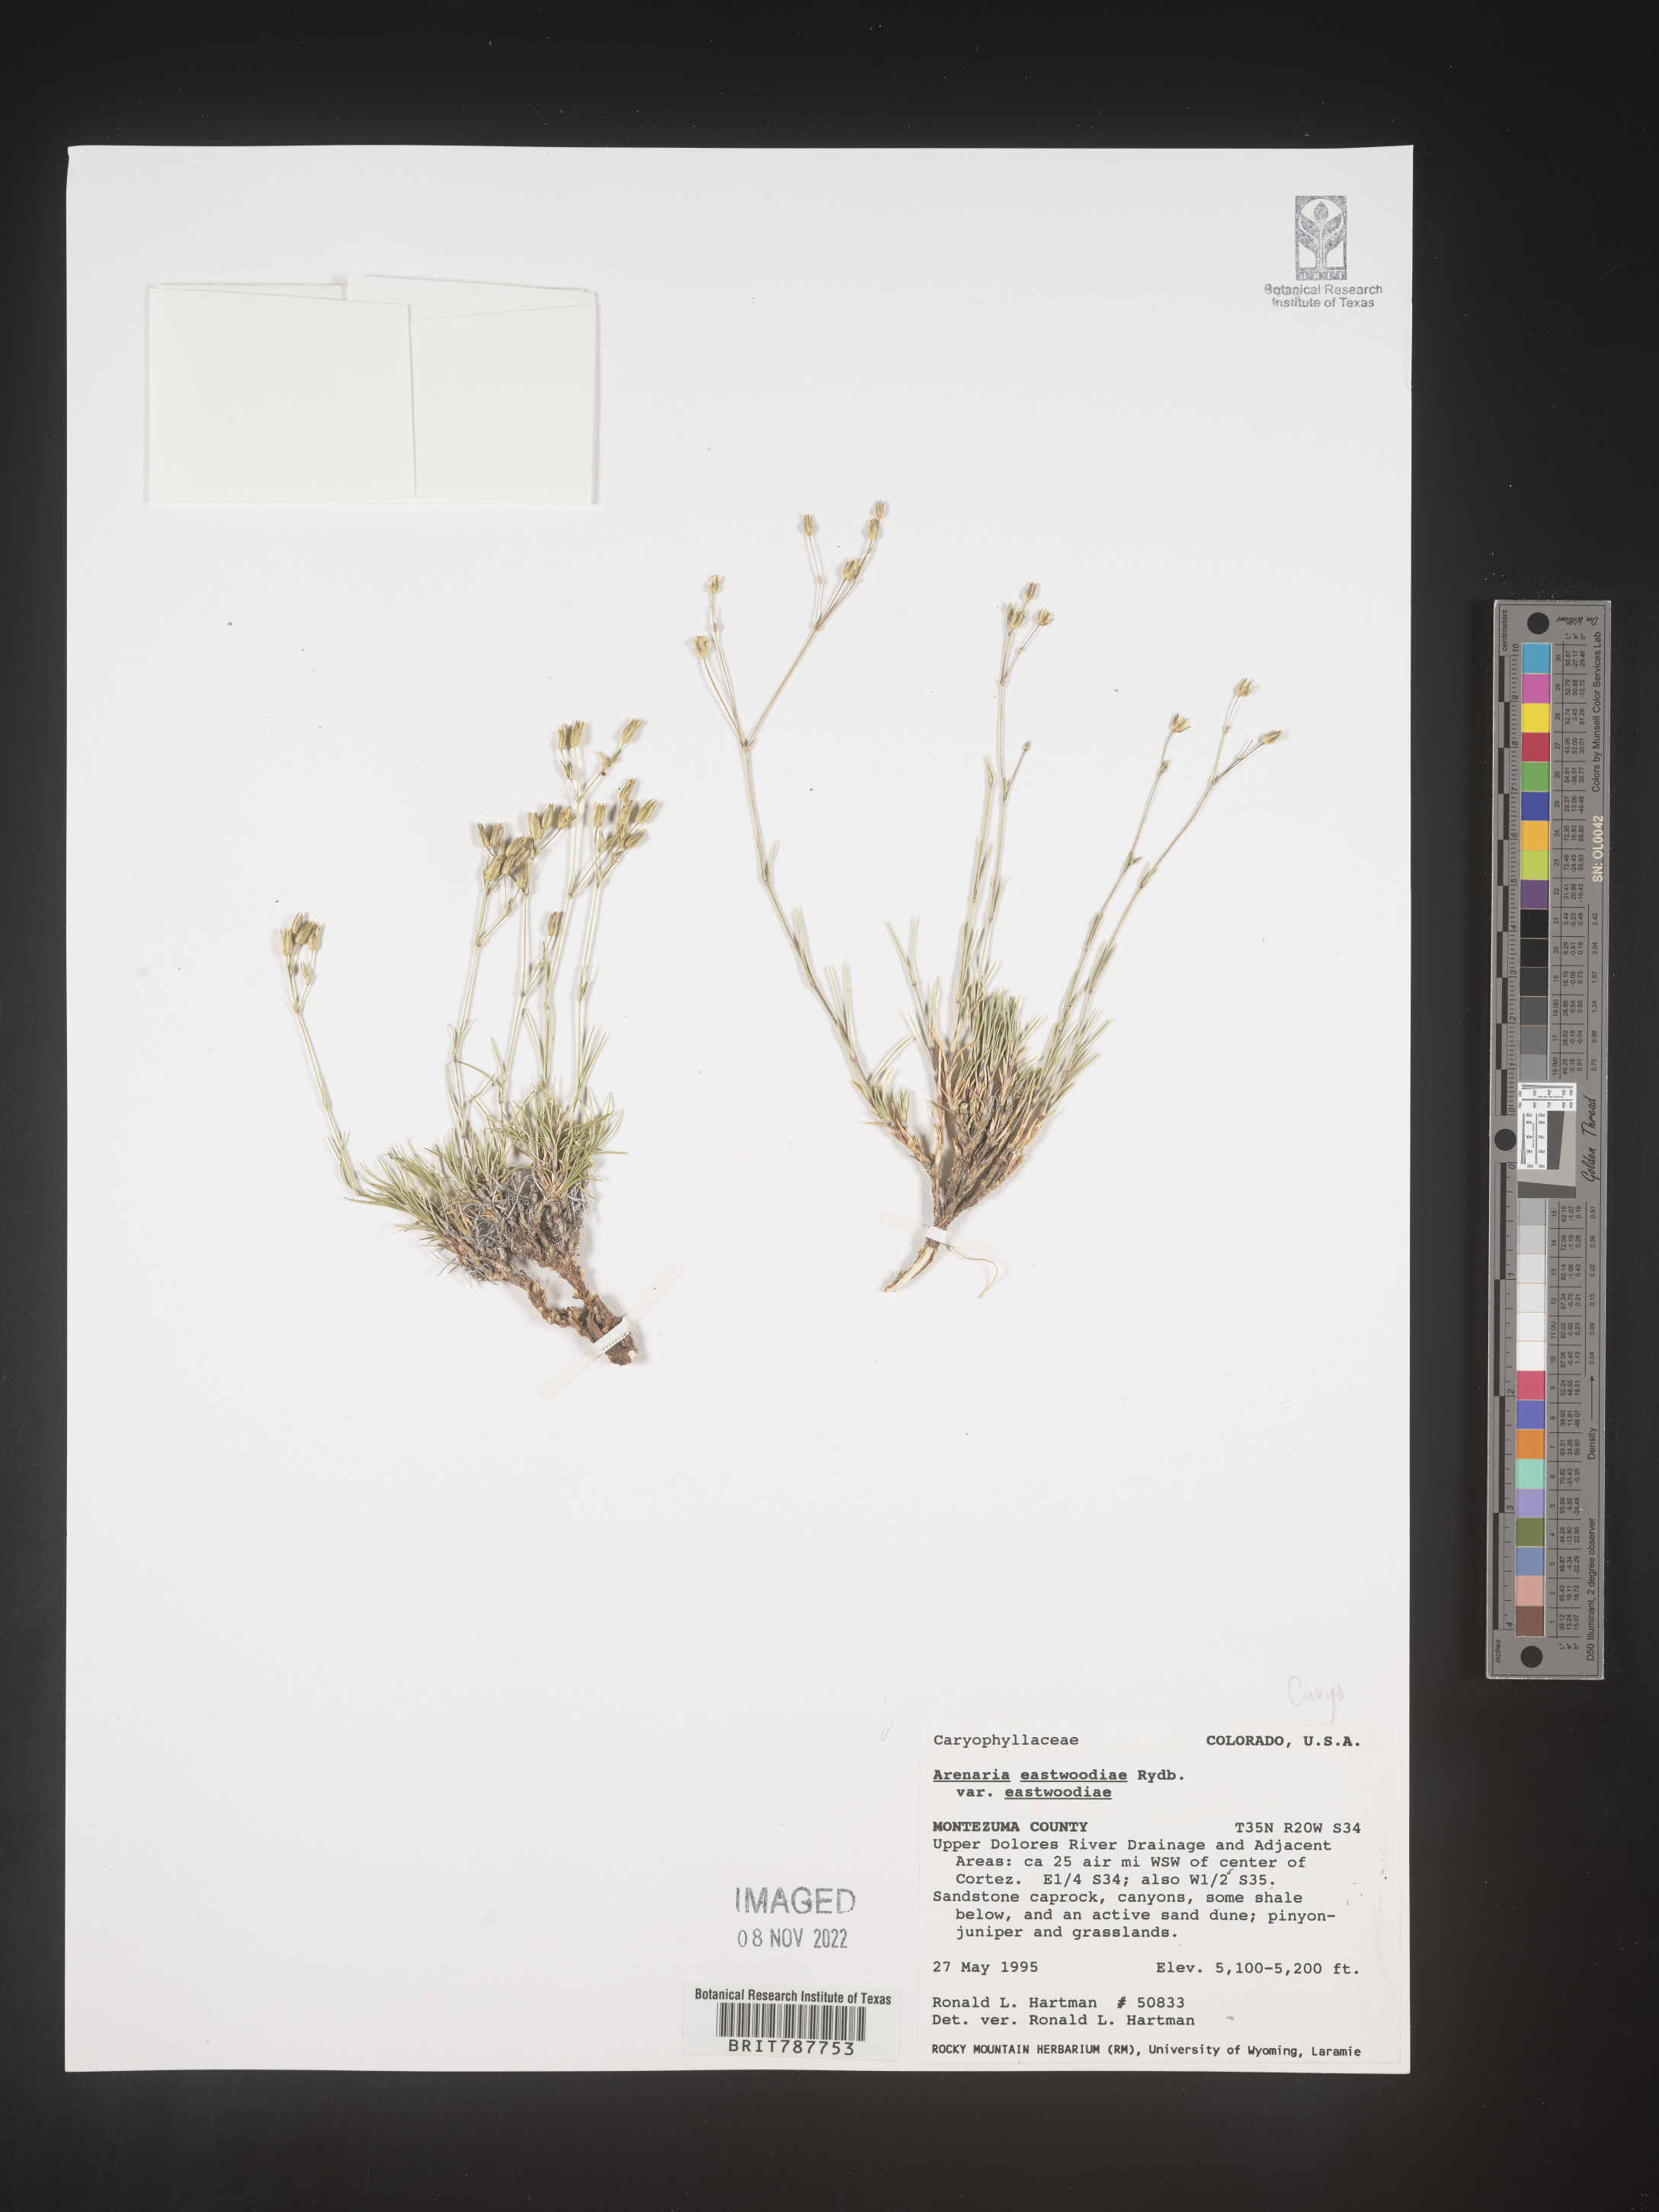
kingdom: Plantae
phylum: Tracheophyta
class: Magnoliopsida
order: Caryophyllales
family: Caryophyllaceae
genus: Arenaria
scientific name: Arenaria
